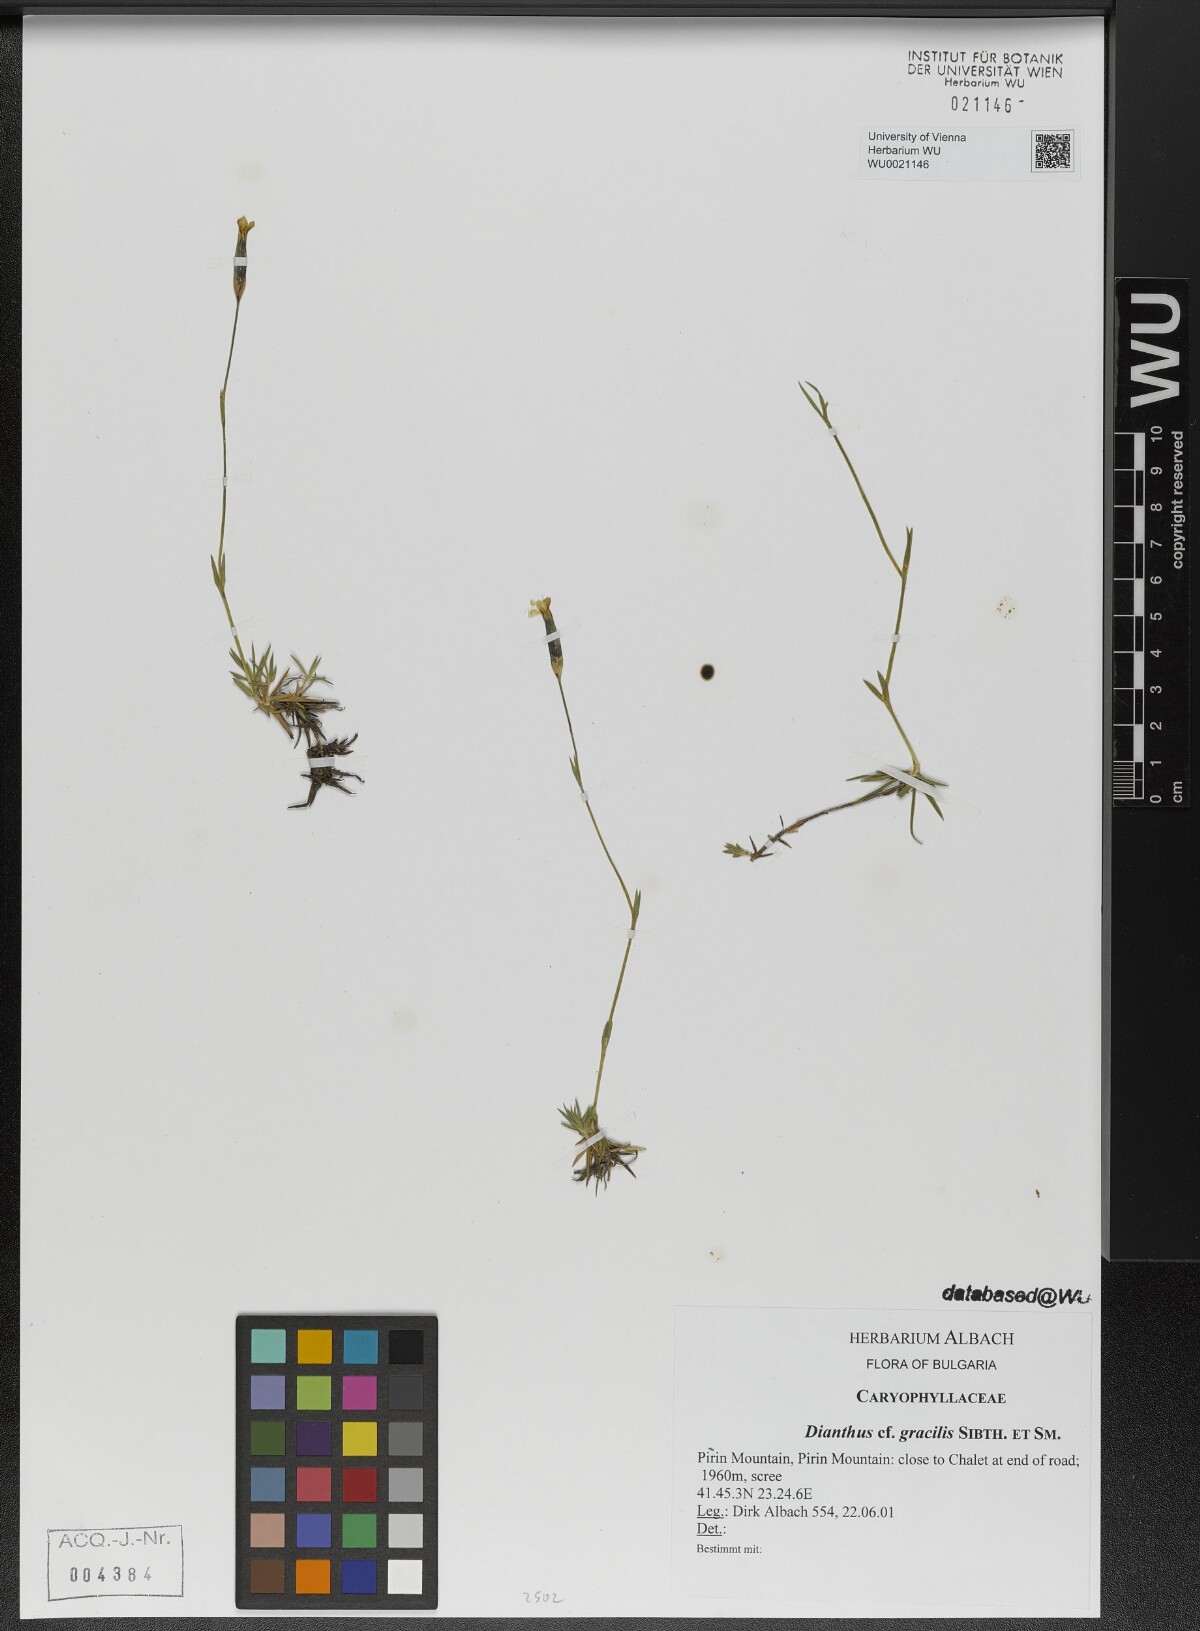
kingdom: Plantae
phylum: Tracheophyta
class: Magnoliopsida
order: Caryophyllales
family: Caryophyllaceae
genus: Dianthus
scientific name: Dianthus gracilis
